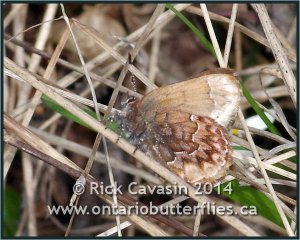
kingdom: Animalia
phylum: Arthropoda
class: Insecta
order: Lepidoptera
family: Lycaenidae
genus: Incisalia
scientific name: Incisalia eryphon
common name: Western Pine Elfin
